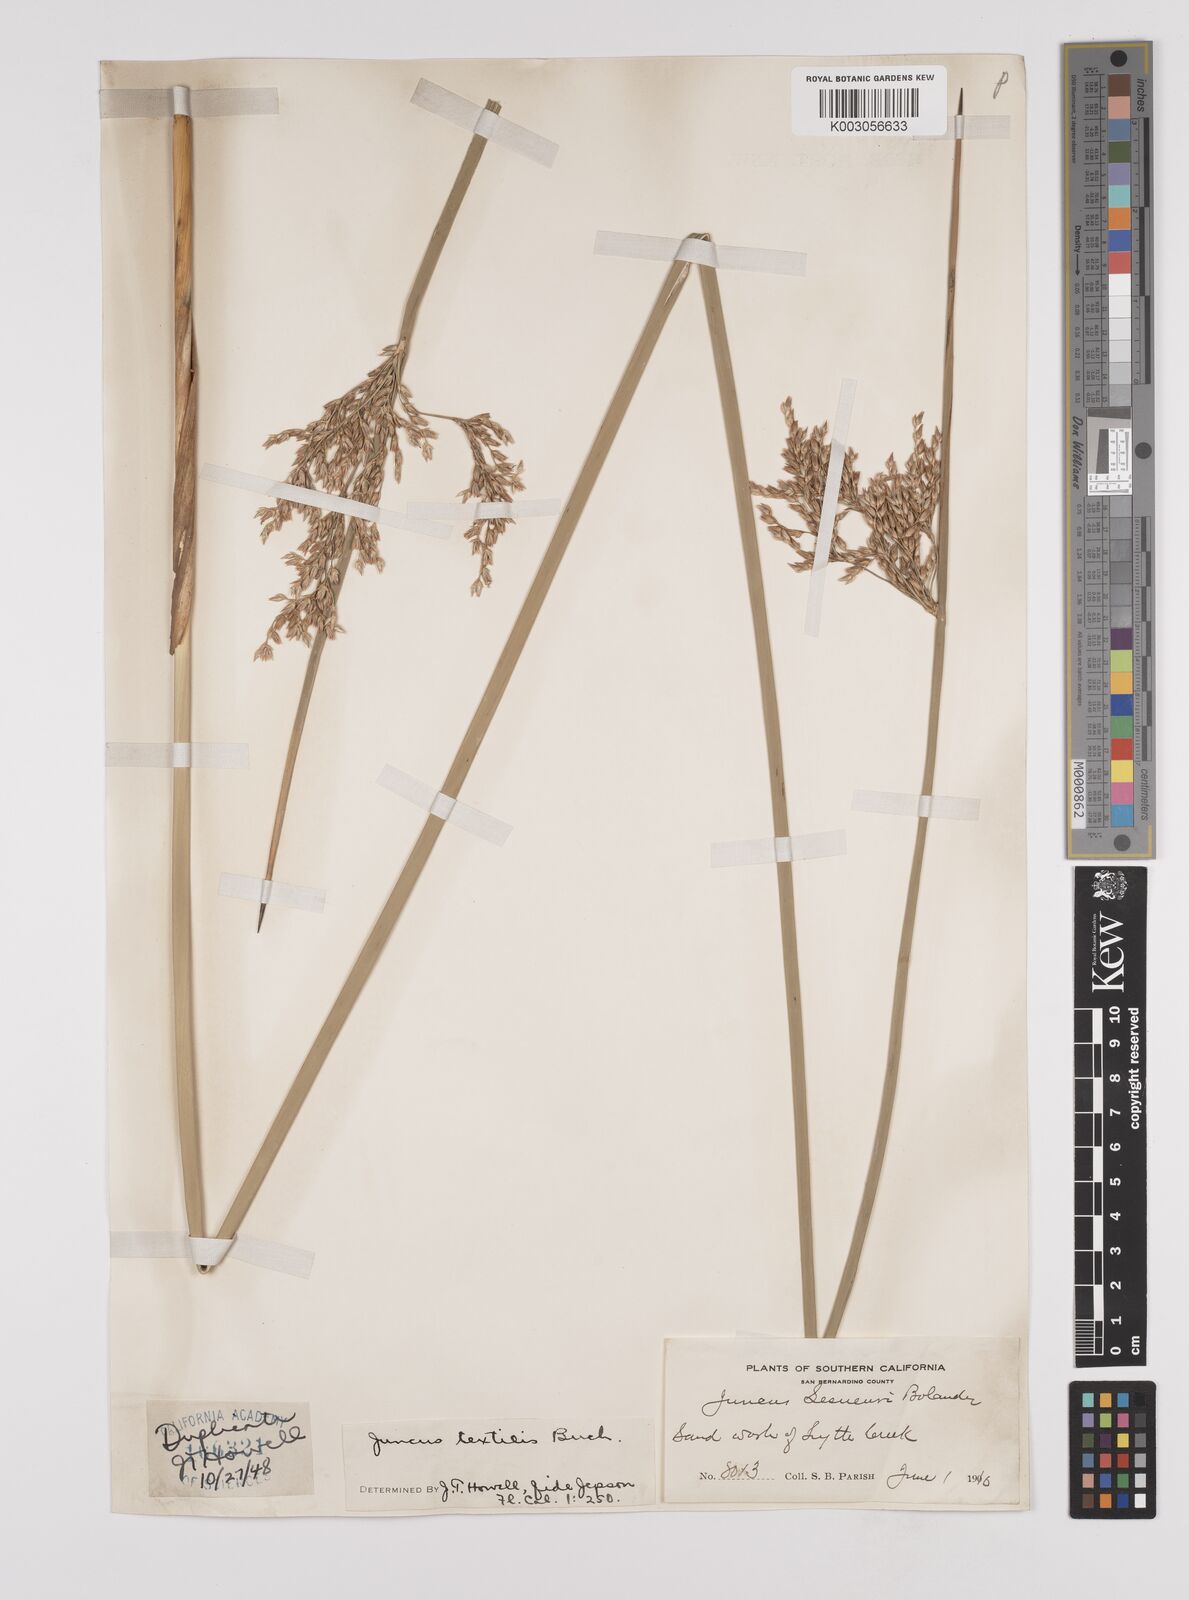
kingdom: Plantae
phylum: Tracheophyta
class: Liliopsida
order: Poales
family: Juncaceae
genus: Juncus
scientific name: Juncus textilis
